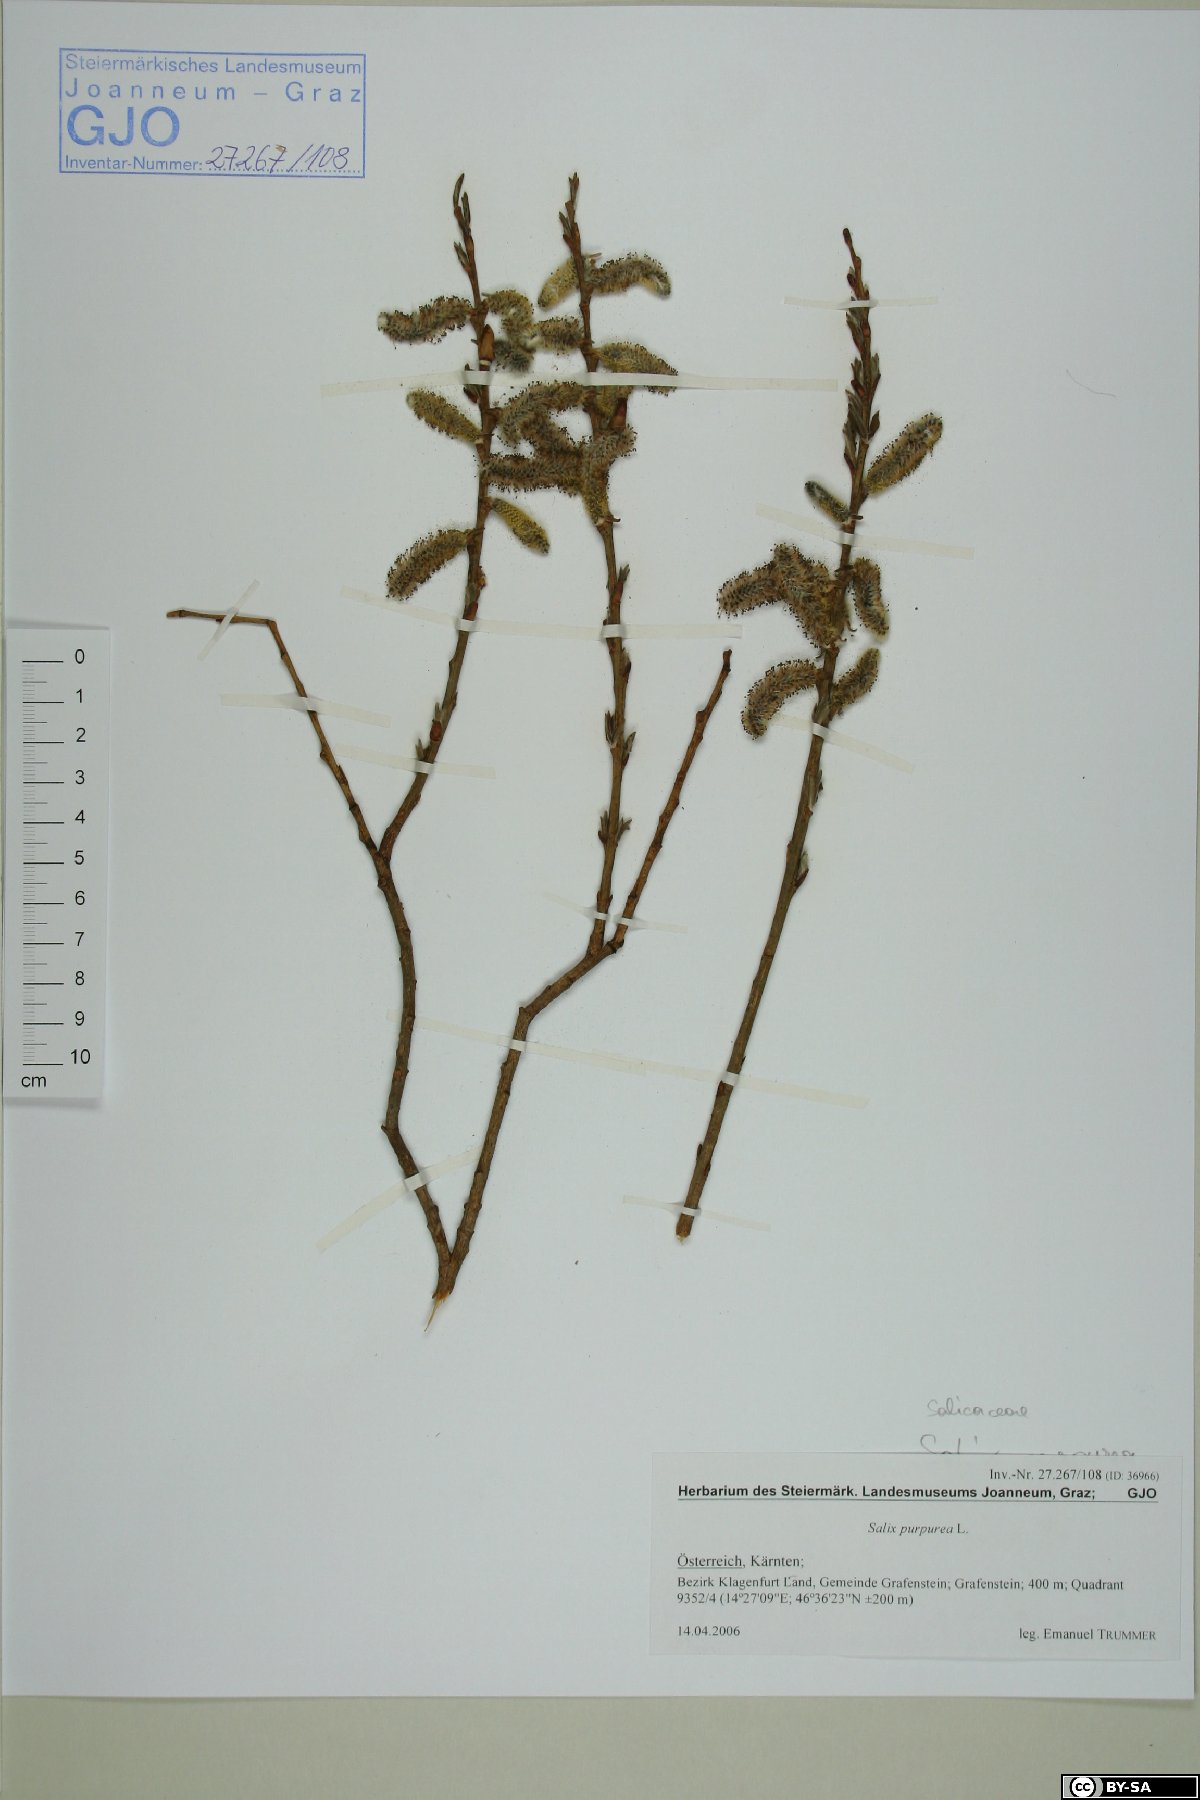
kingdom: Plantae
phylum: Tracheophyta
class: Magnoliopsida
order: Malpighiales
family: Salicaceae
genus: Salix
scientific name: Salix purpurea
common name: Purple willow
